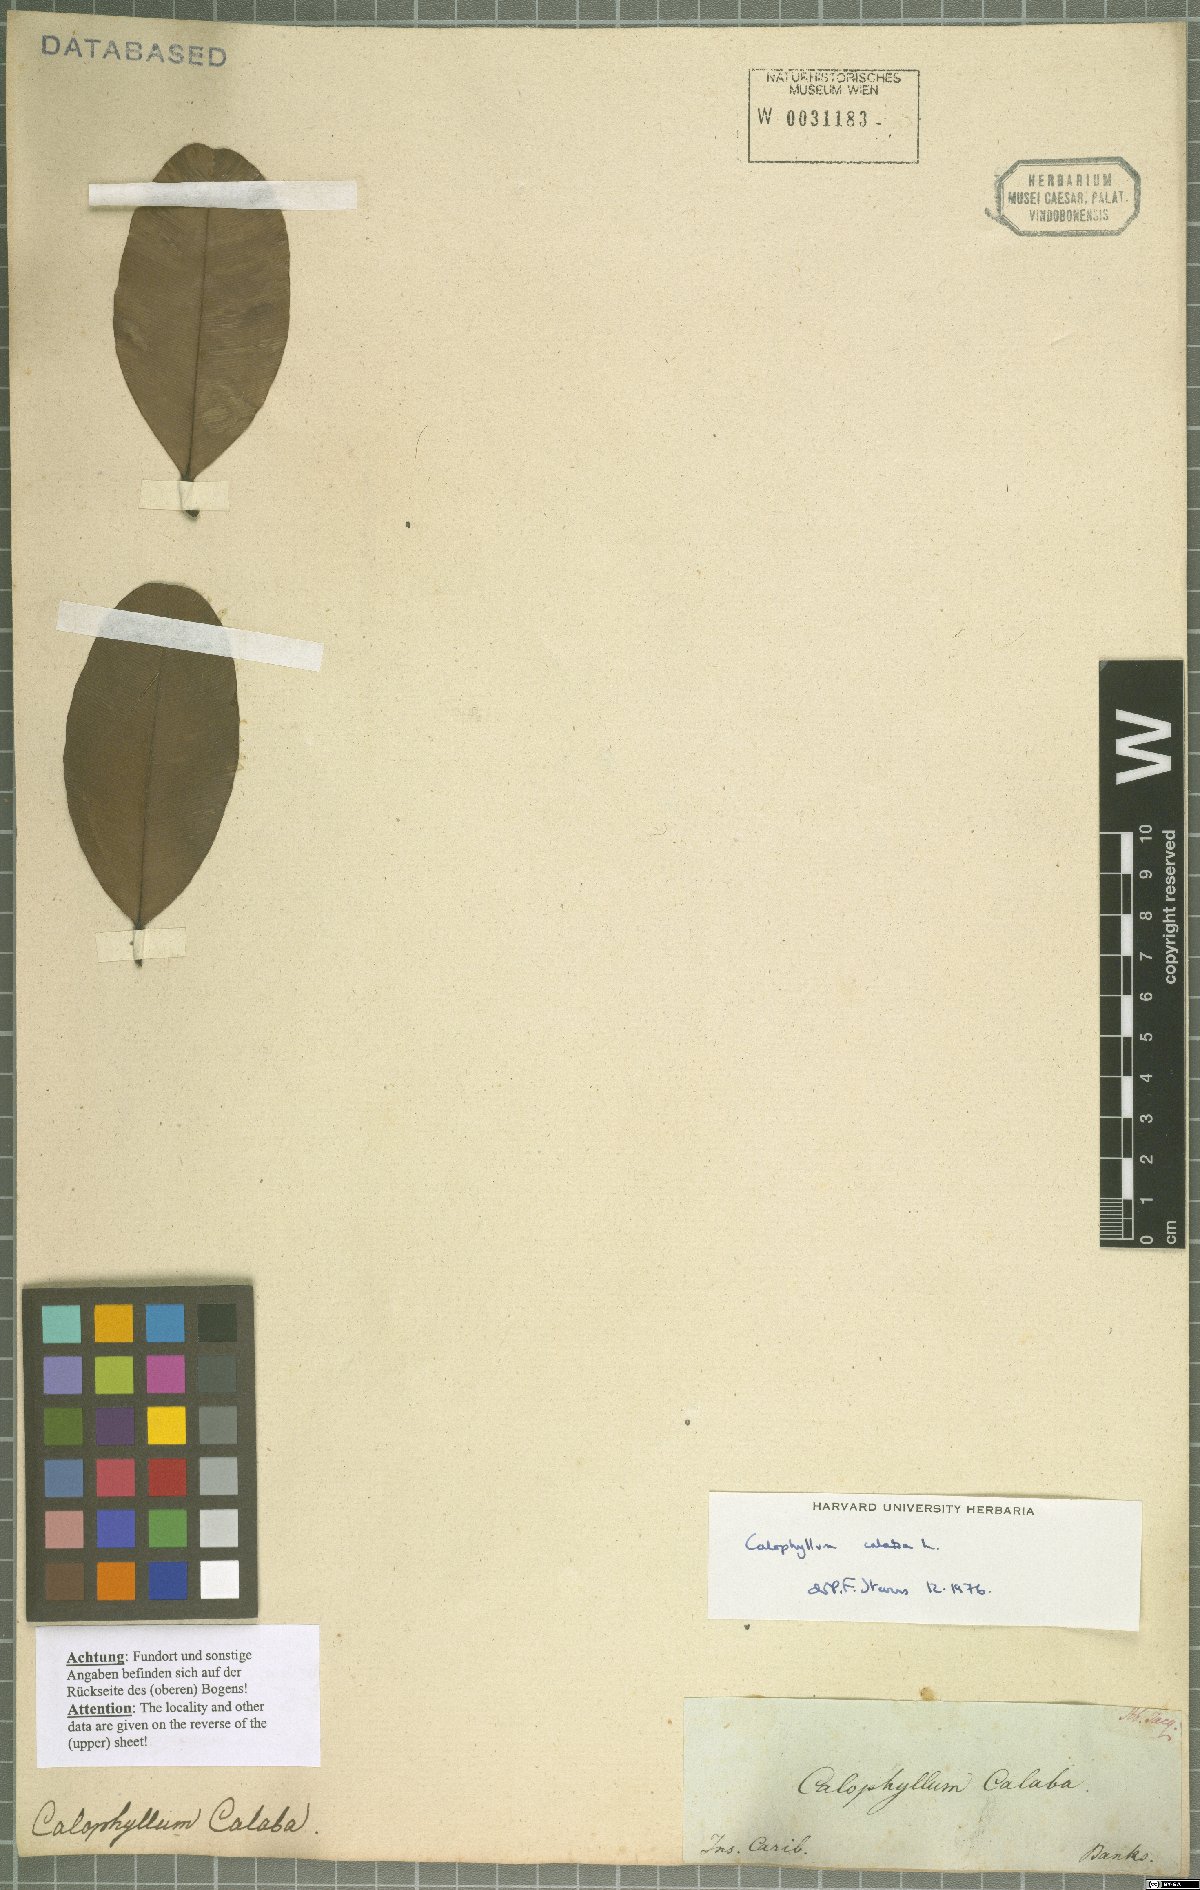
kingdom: Plantae
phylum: Tracheophyta
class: Magnoliopsida
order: Malpighiales
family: Calophyllaceae
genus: Calophyllum
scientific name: Calophyllum calaba
